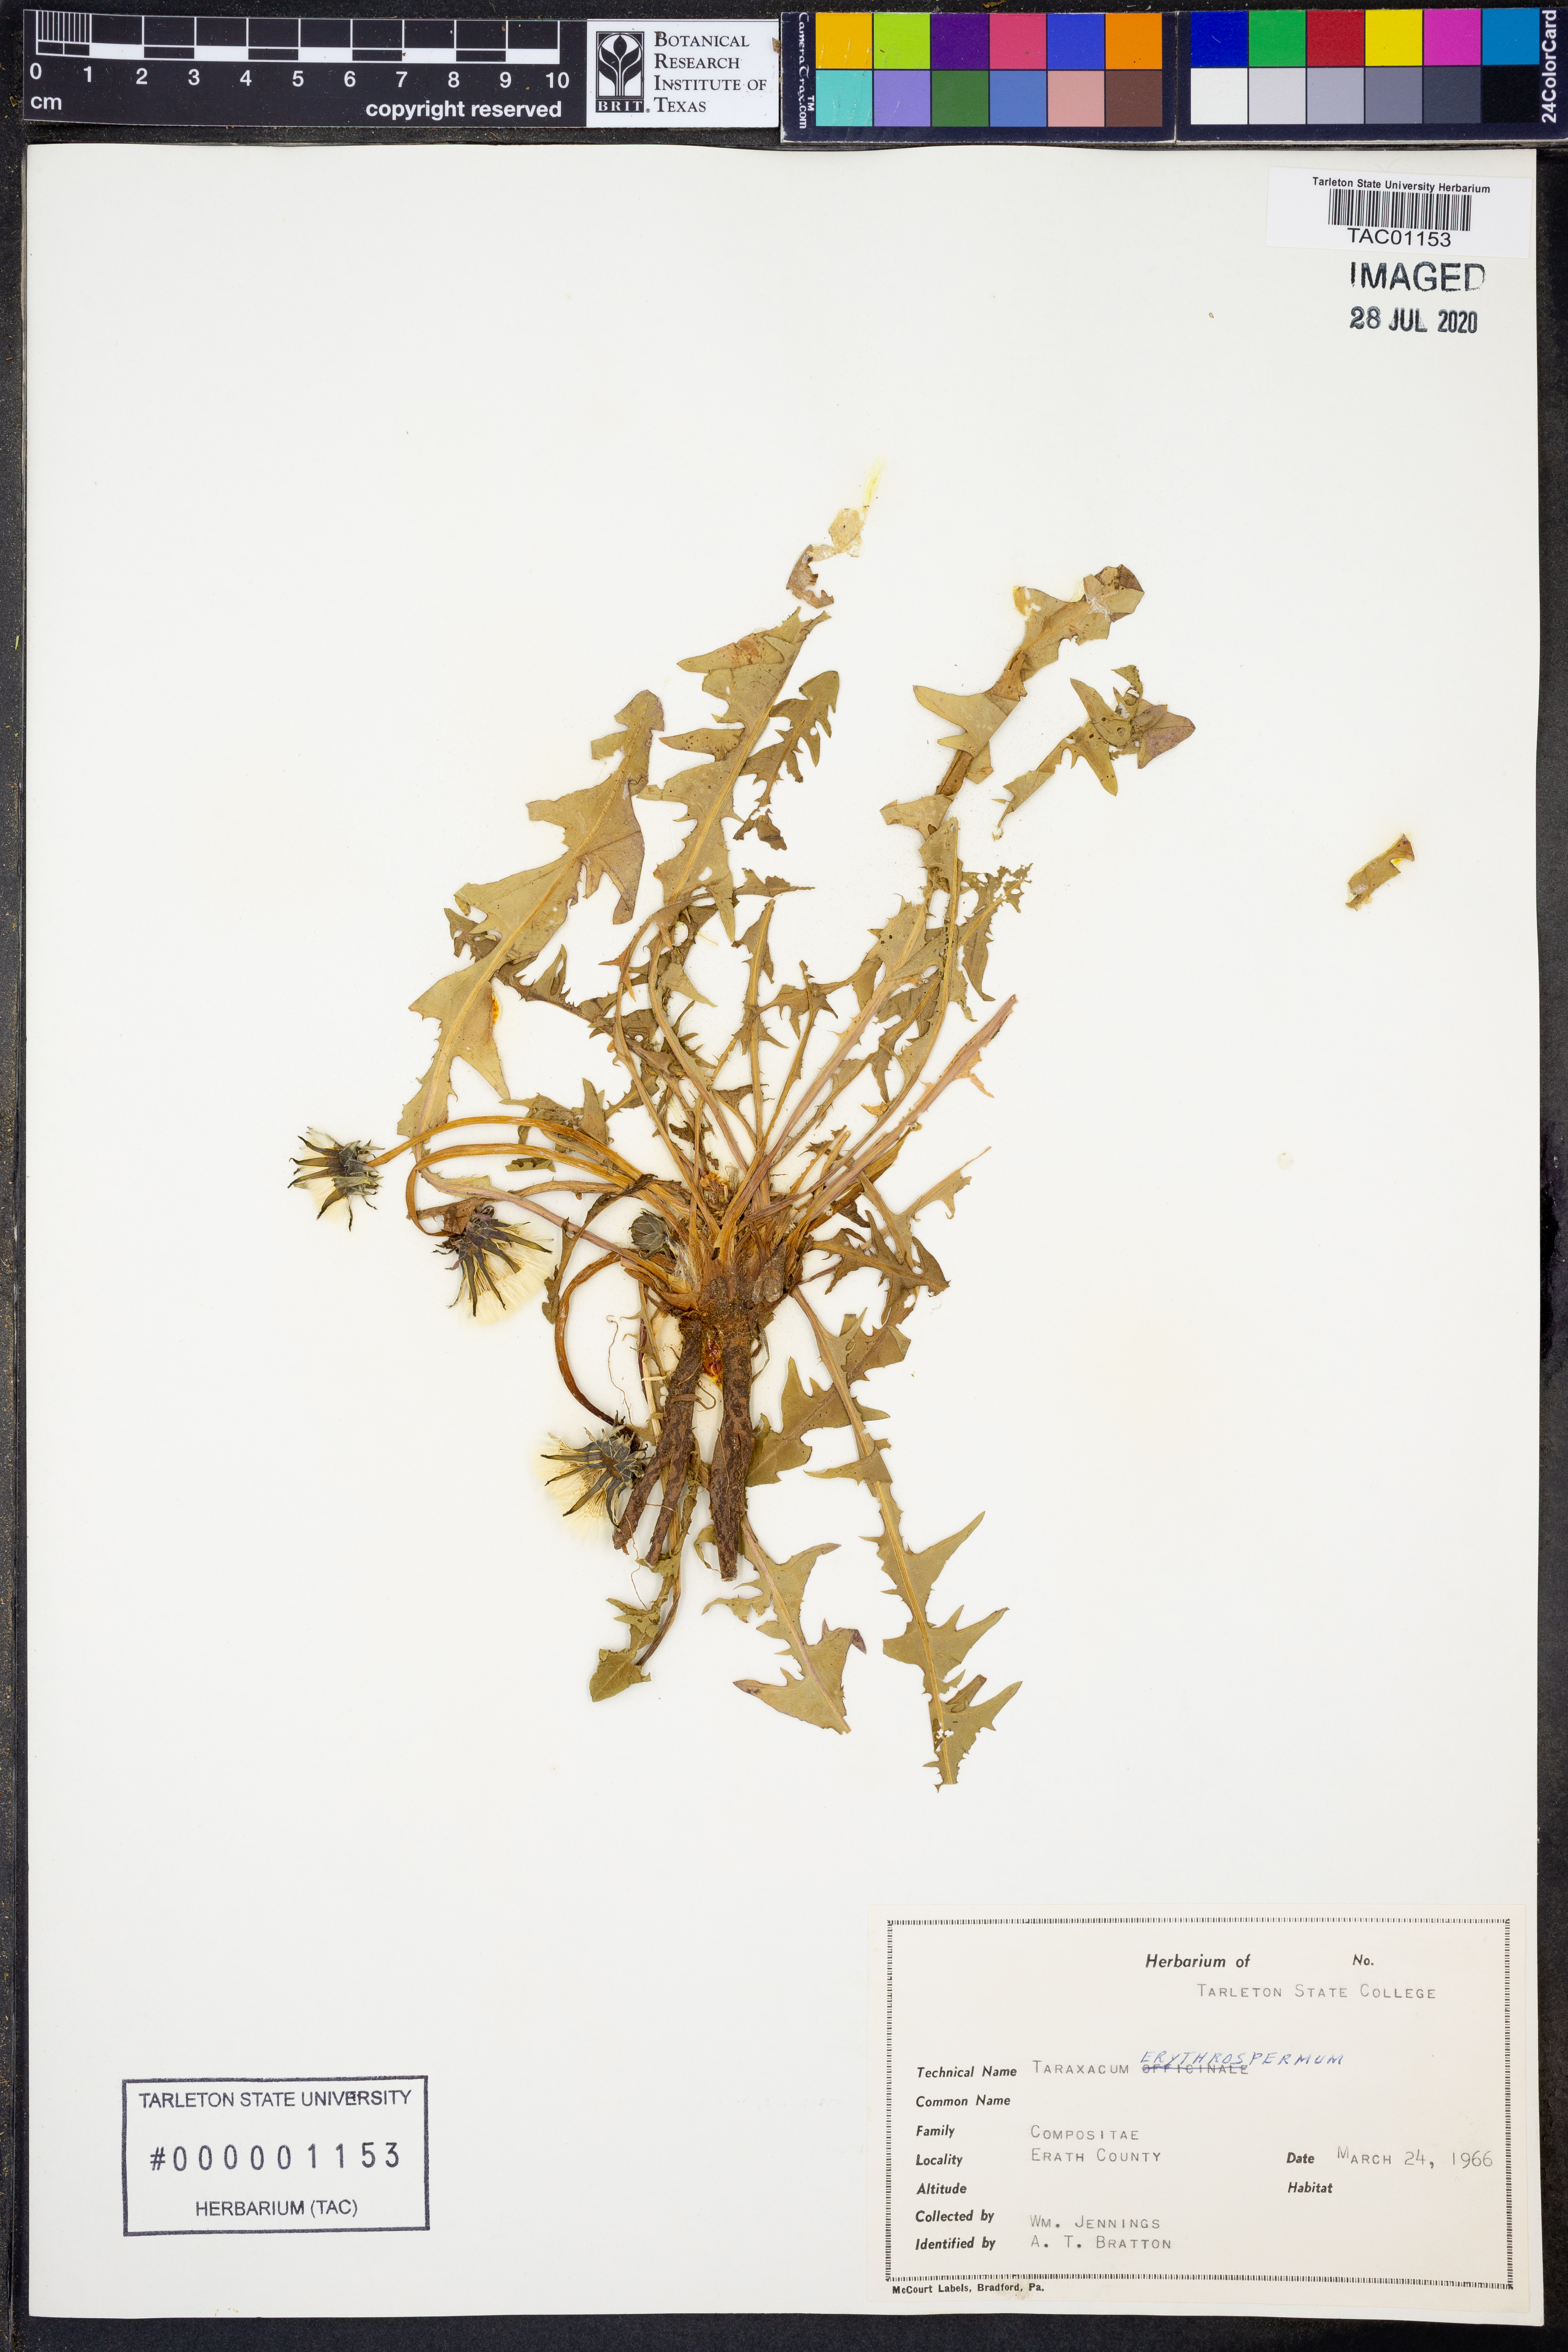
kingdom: Plantae
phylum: Tracheophyta
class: Magnoliopsida
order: Asterales
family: Asteraceae
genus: Taraxacum
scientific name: Taraxacum erythrospermum
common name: Rock dandelion
